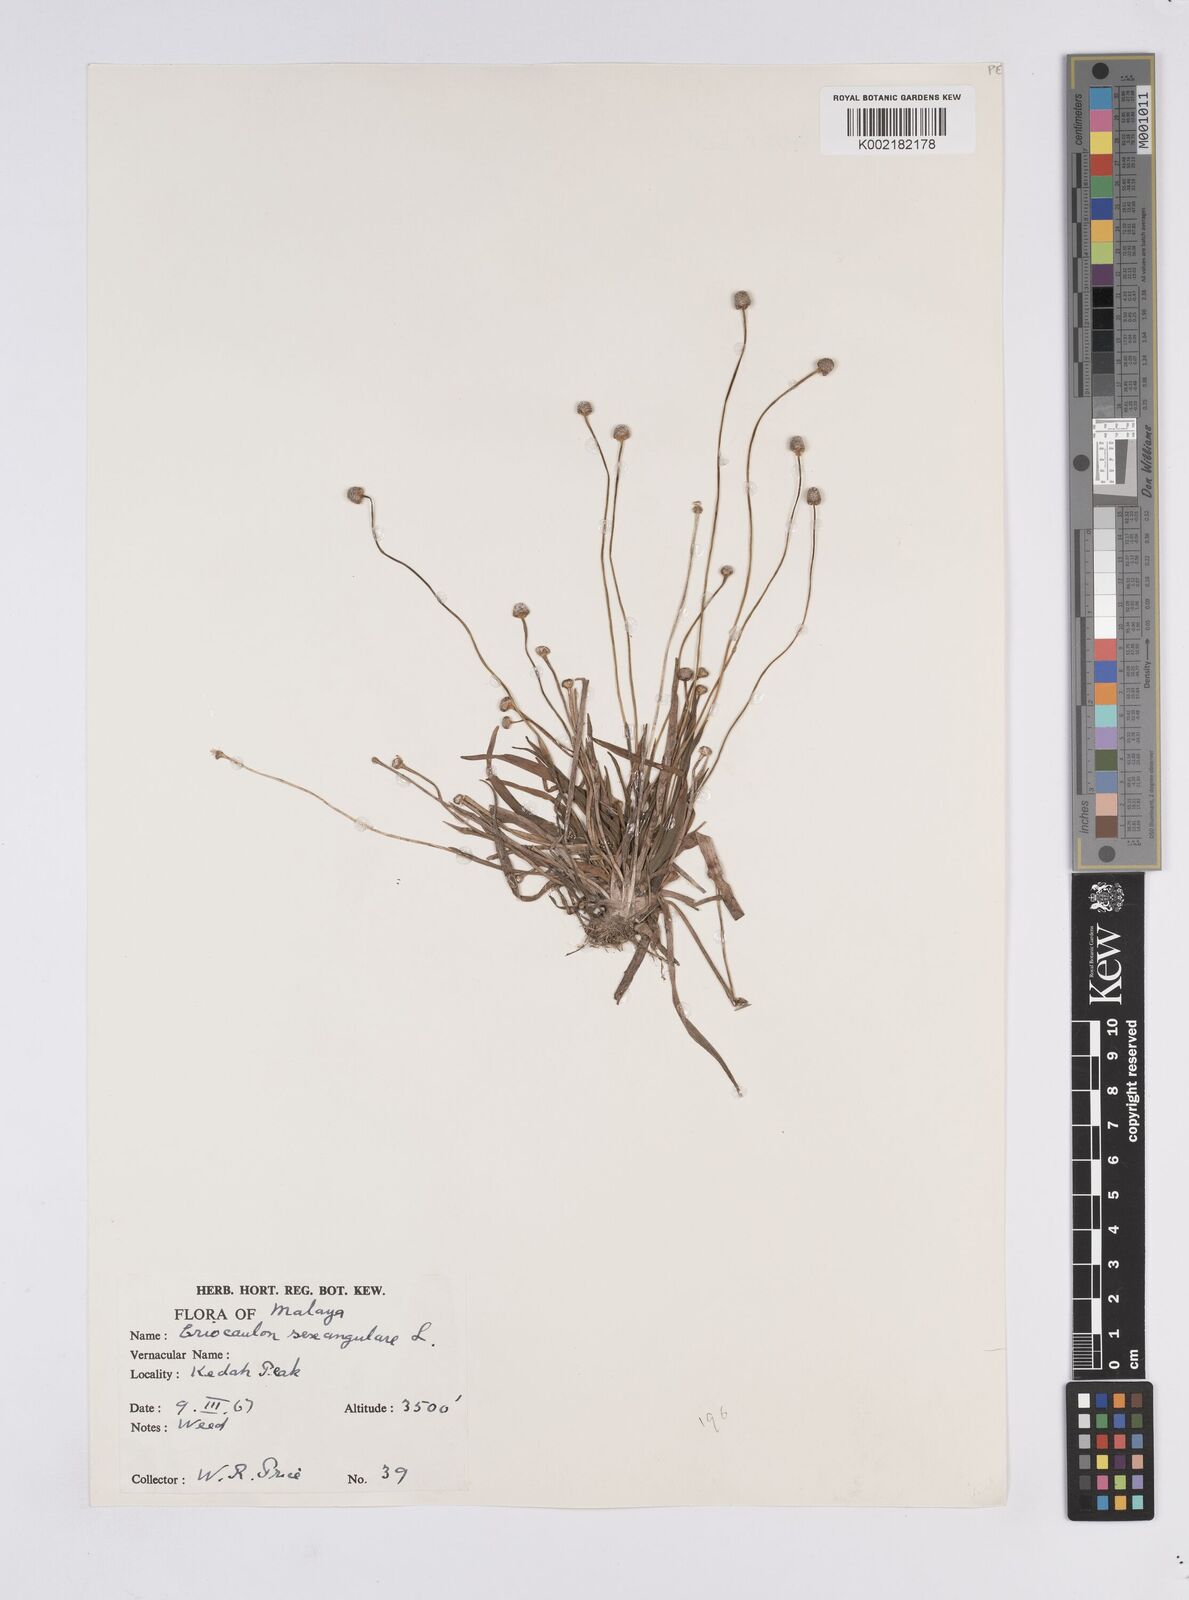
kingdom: Plantae
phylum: Tracheophyta
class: Liliopsida
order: Poales
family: Eriocaulaceae
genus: Eriocaulon
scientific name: Eriocaulon sexangulare
